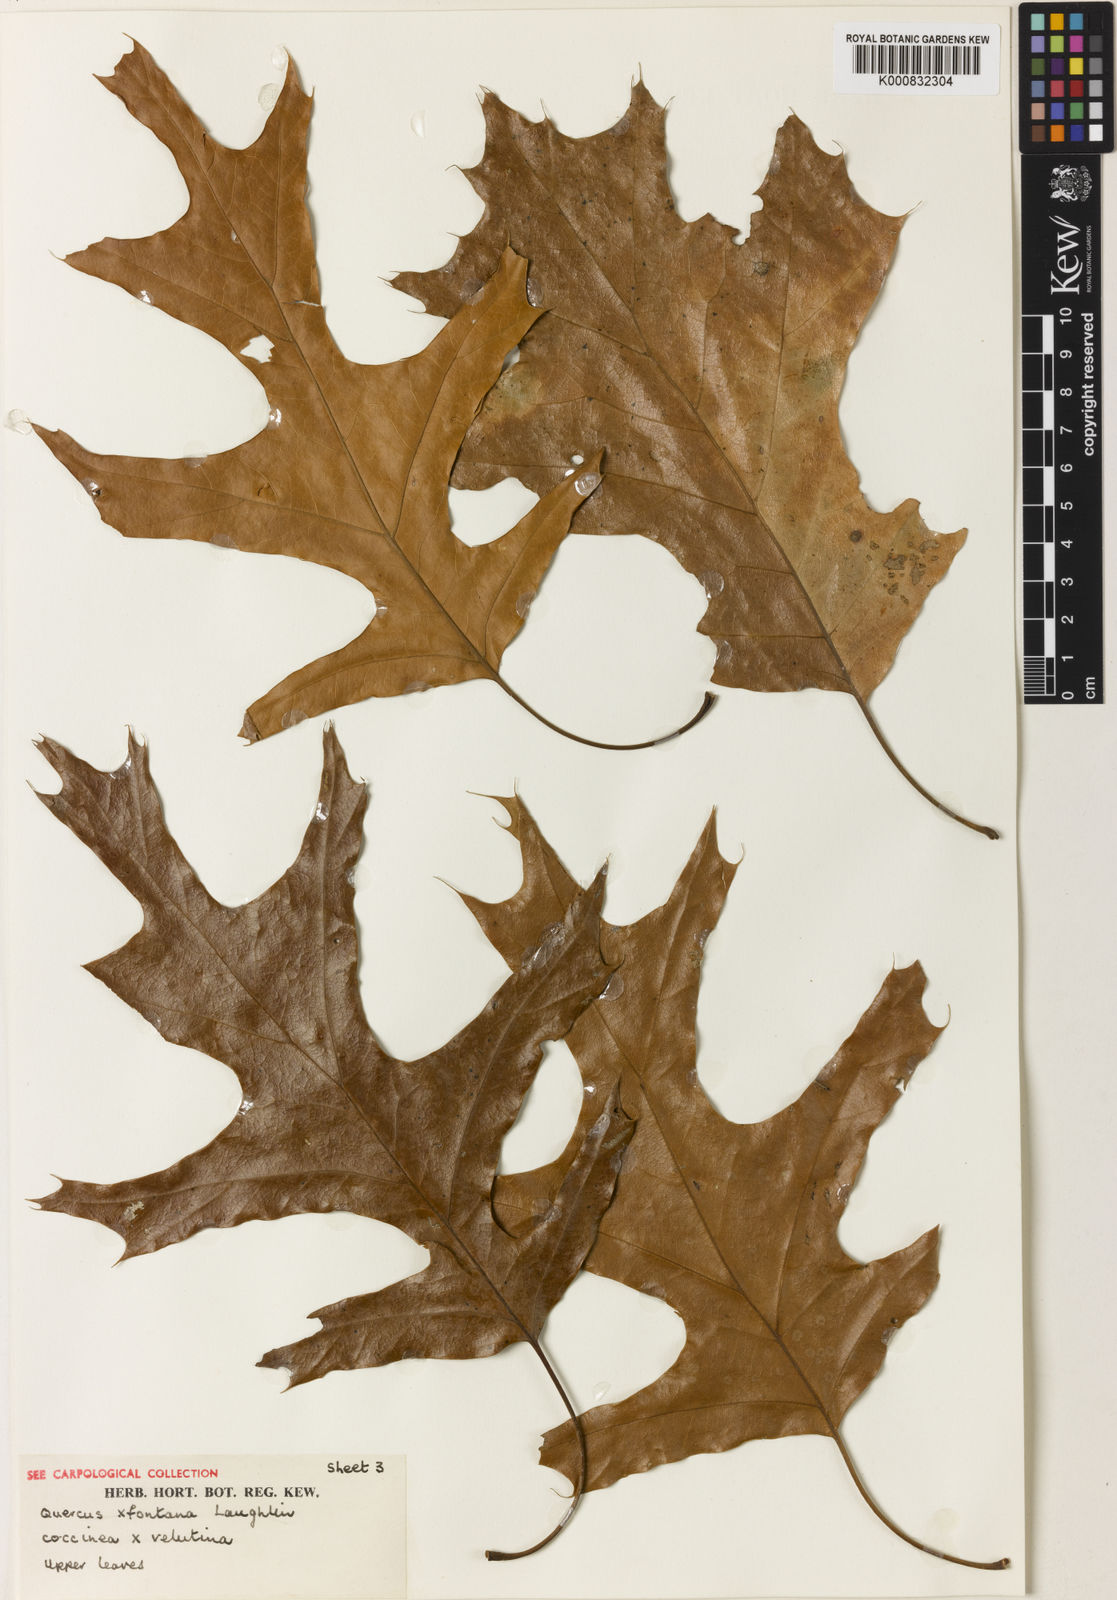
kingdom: Plantae
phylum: Tracheophyta
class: Magnoliopsida
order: Fagales
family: Fagaceae
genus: Quercus
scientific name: Quercus
